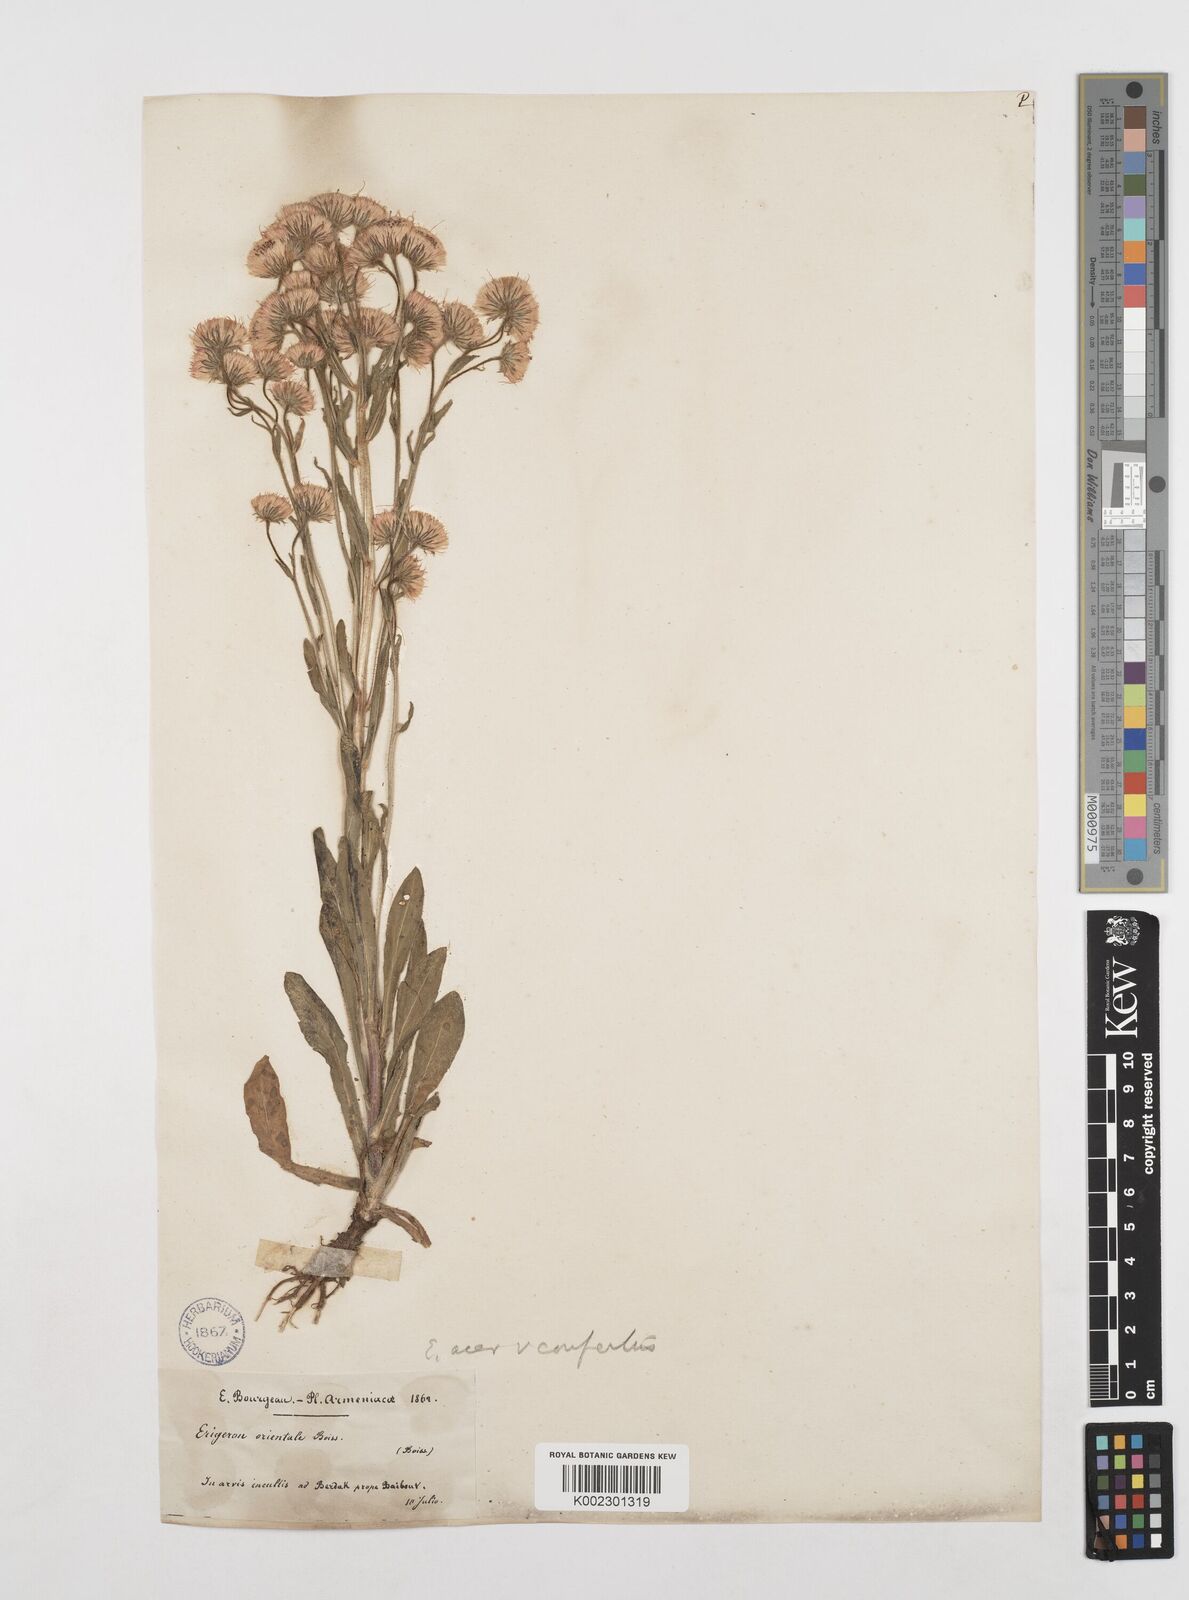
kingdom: Plantae
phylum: Tracheophyta
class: Magnoliopsida
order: Asterales
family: Asteraceae
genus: Erigeron
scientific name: Erigeron acris
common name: Blue fleabane
